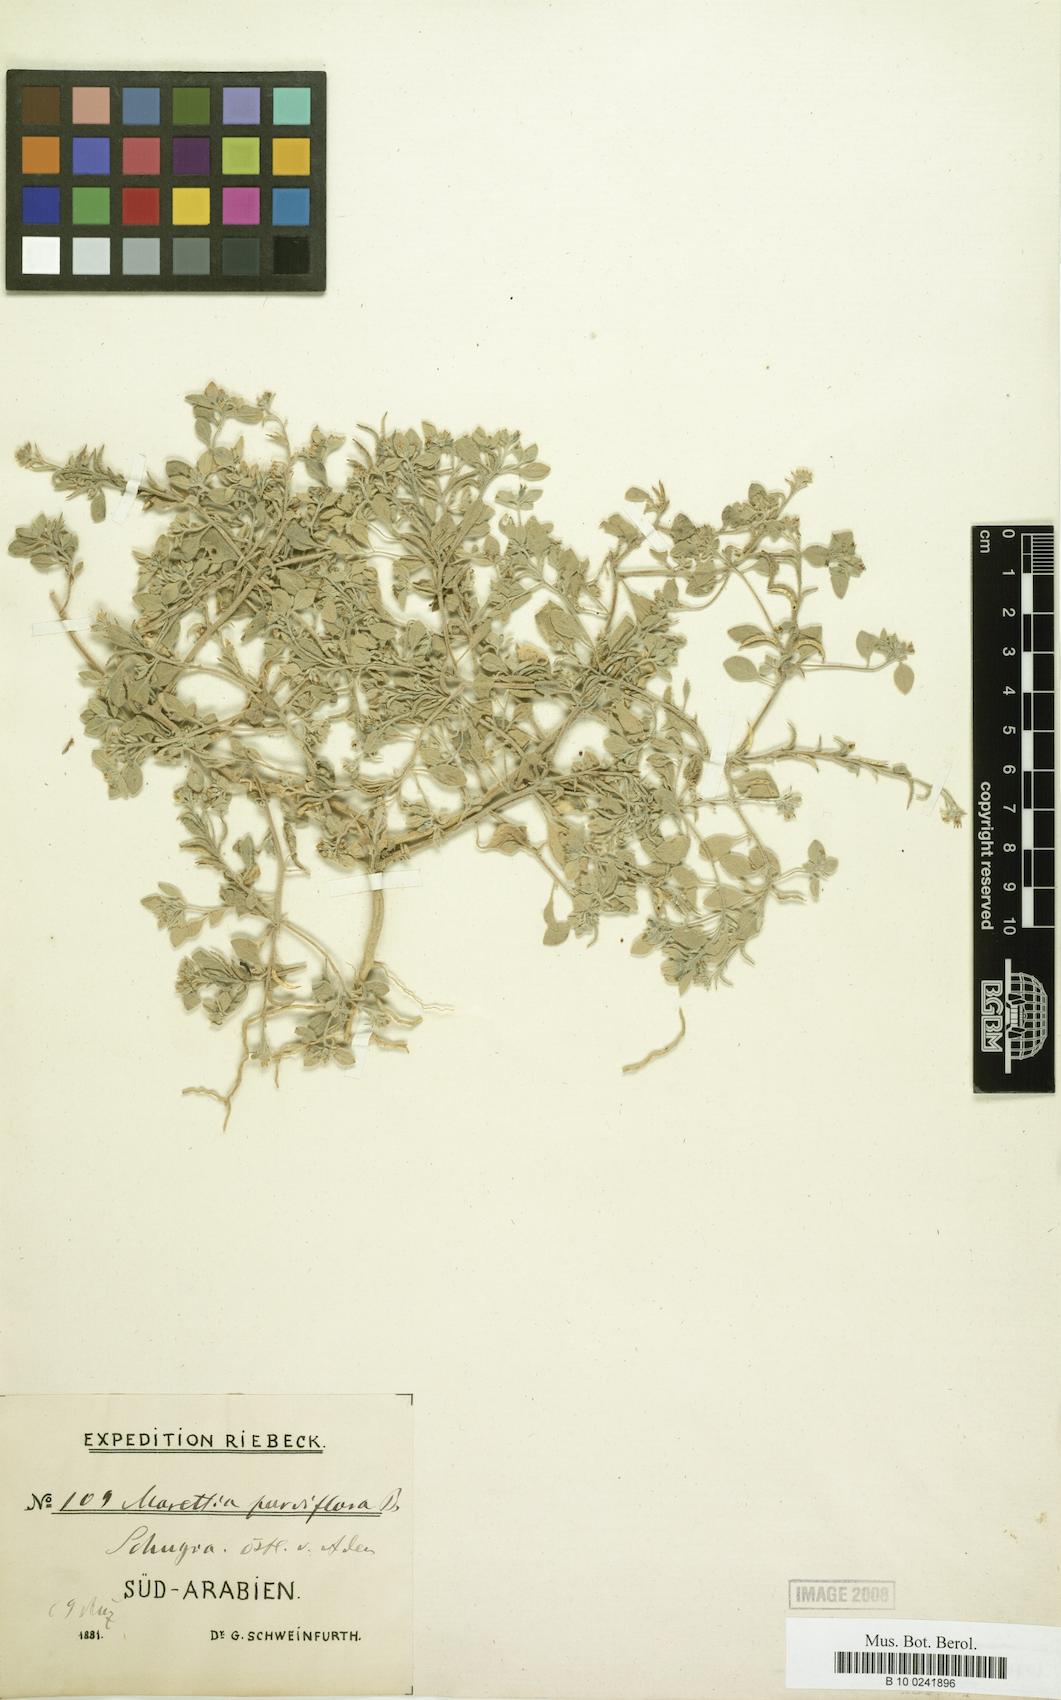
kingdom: Plantae
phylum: Tracheophyta
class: Magnoliopsida
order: Brassicales
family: Brassicaceae
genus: Morettia
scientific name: Morettia parviflora
